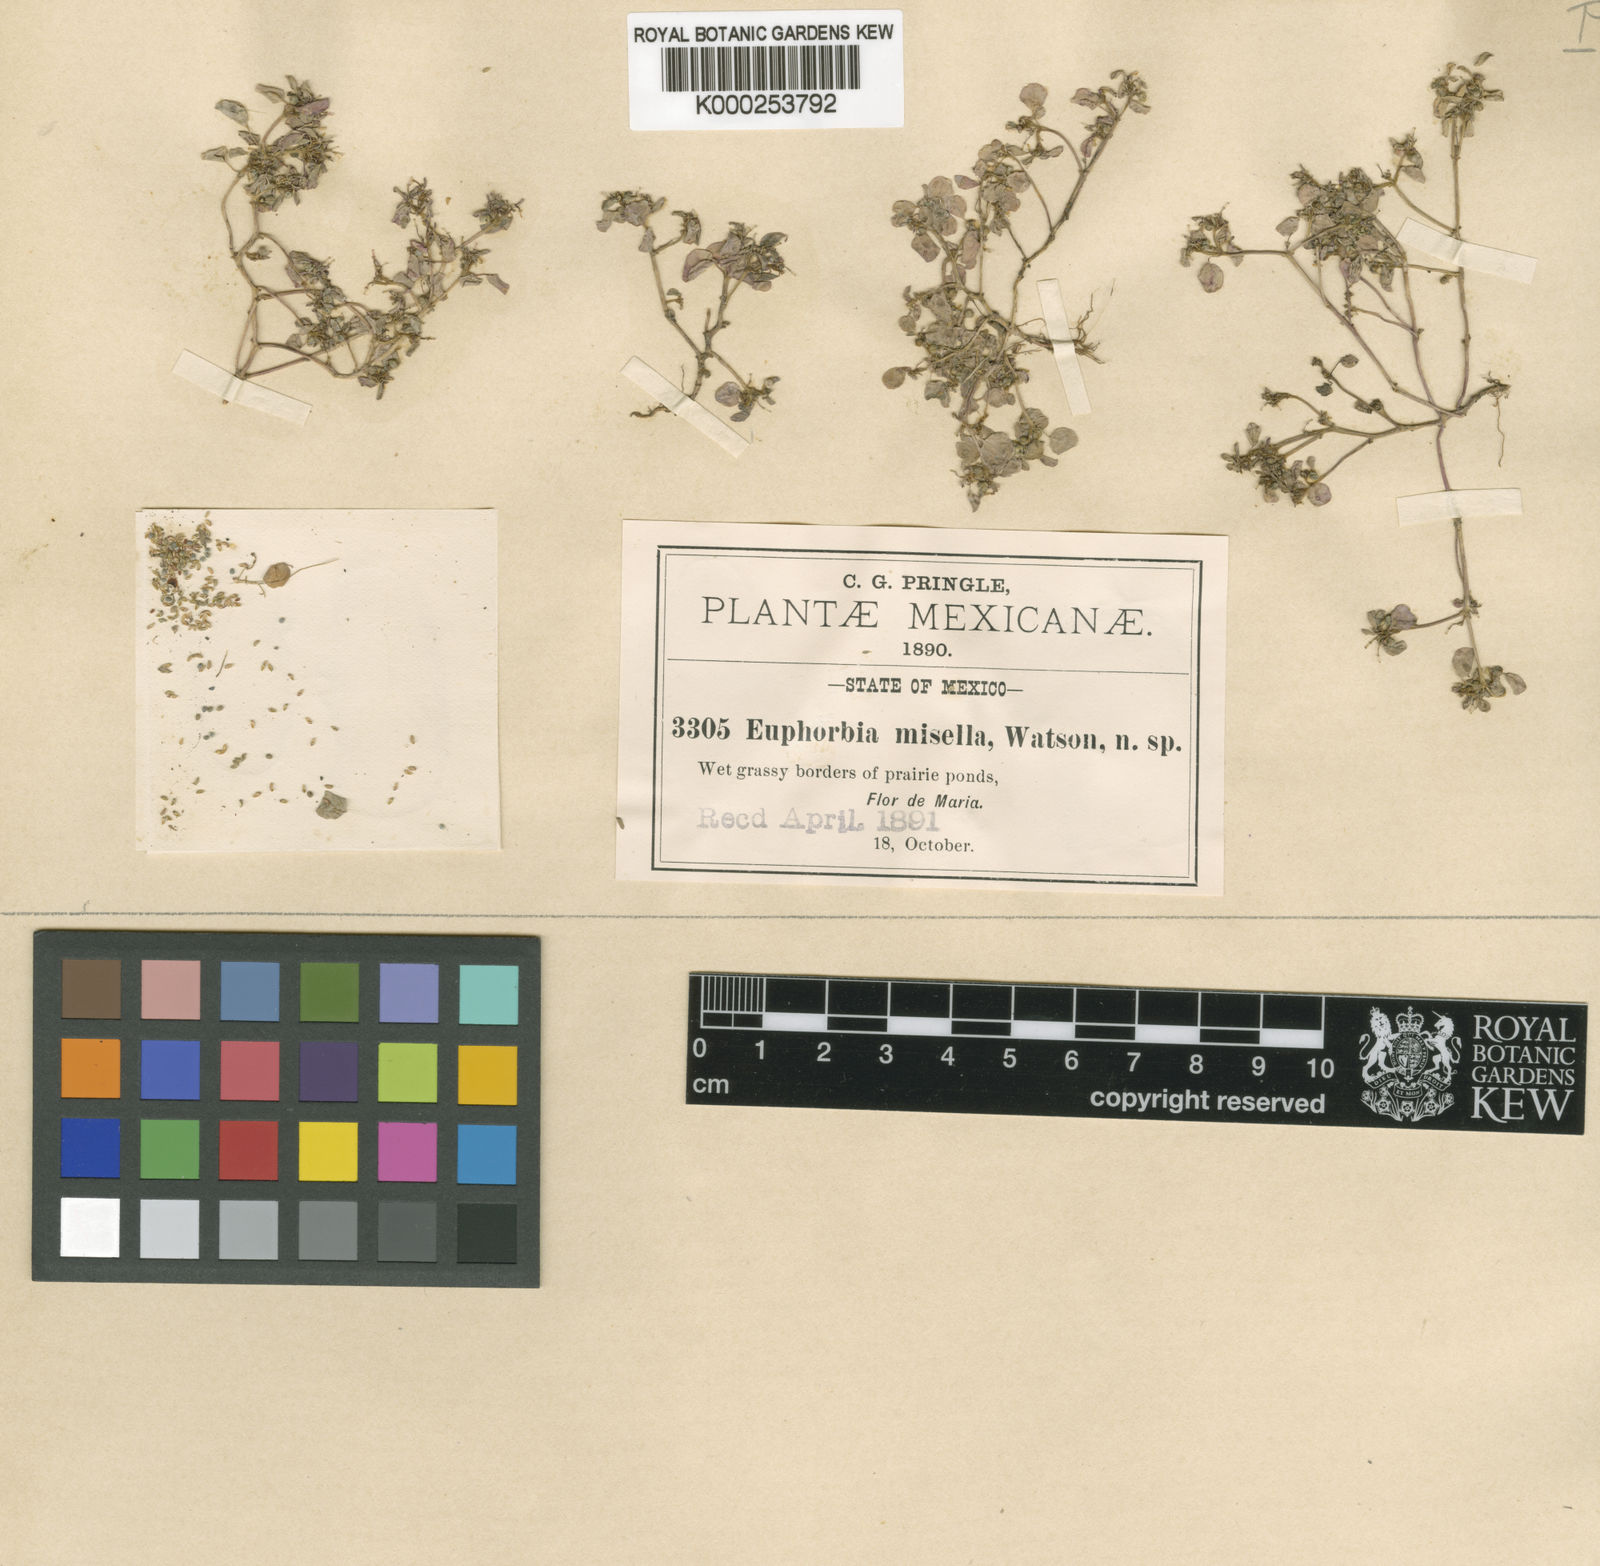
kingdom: Plantae
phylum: Tracheophyta
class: Magnoliopsida
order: Malpighiales
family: Euphorbiaceae
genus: Euphorbia
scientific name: Euphorbia misella
